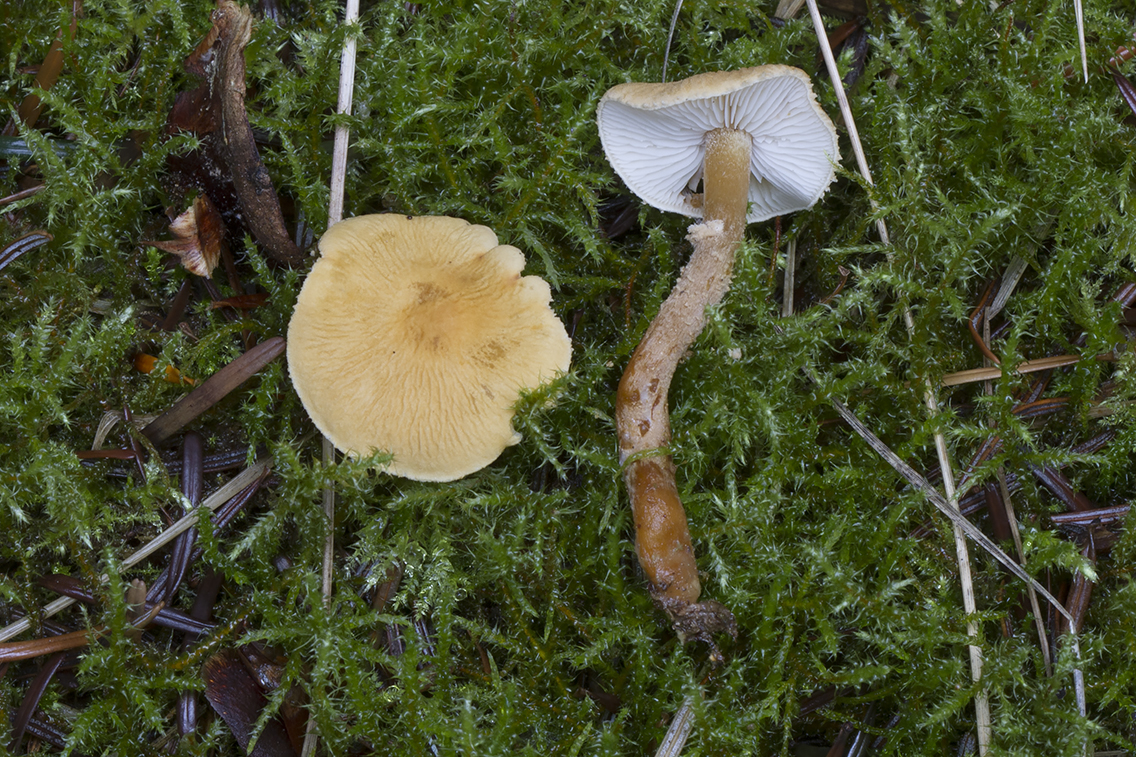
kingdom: Fungi
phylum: Basidiomycota
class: Agaricomycetes
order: Agaricales
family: Tricholomataceae
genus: Cystoderma
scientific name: Cystoderma amianthinum
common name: okkergul grynhat
